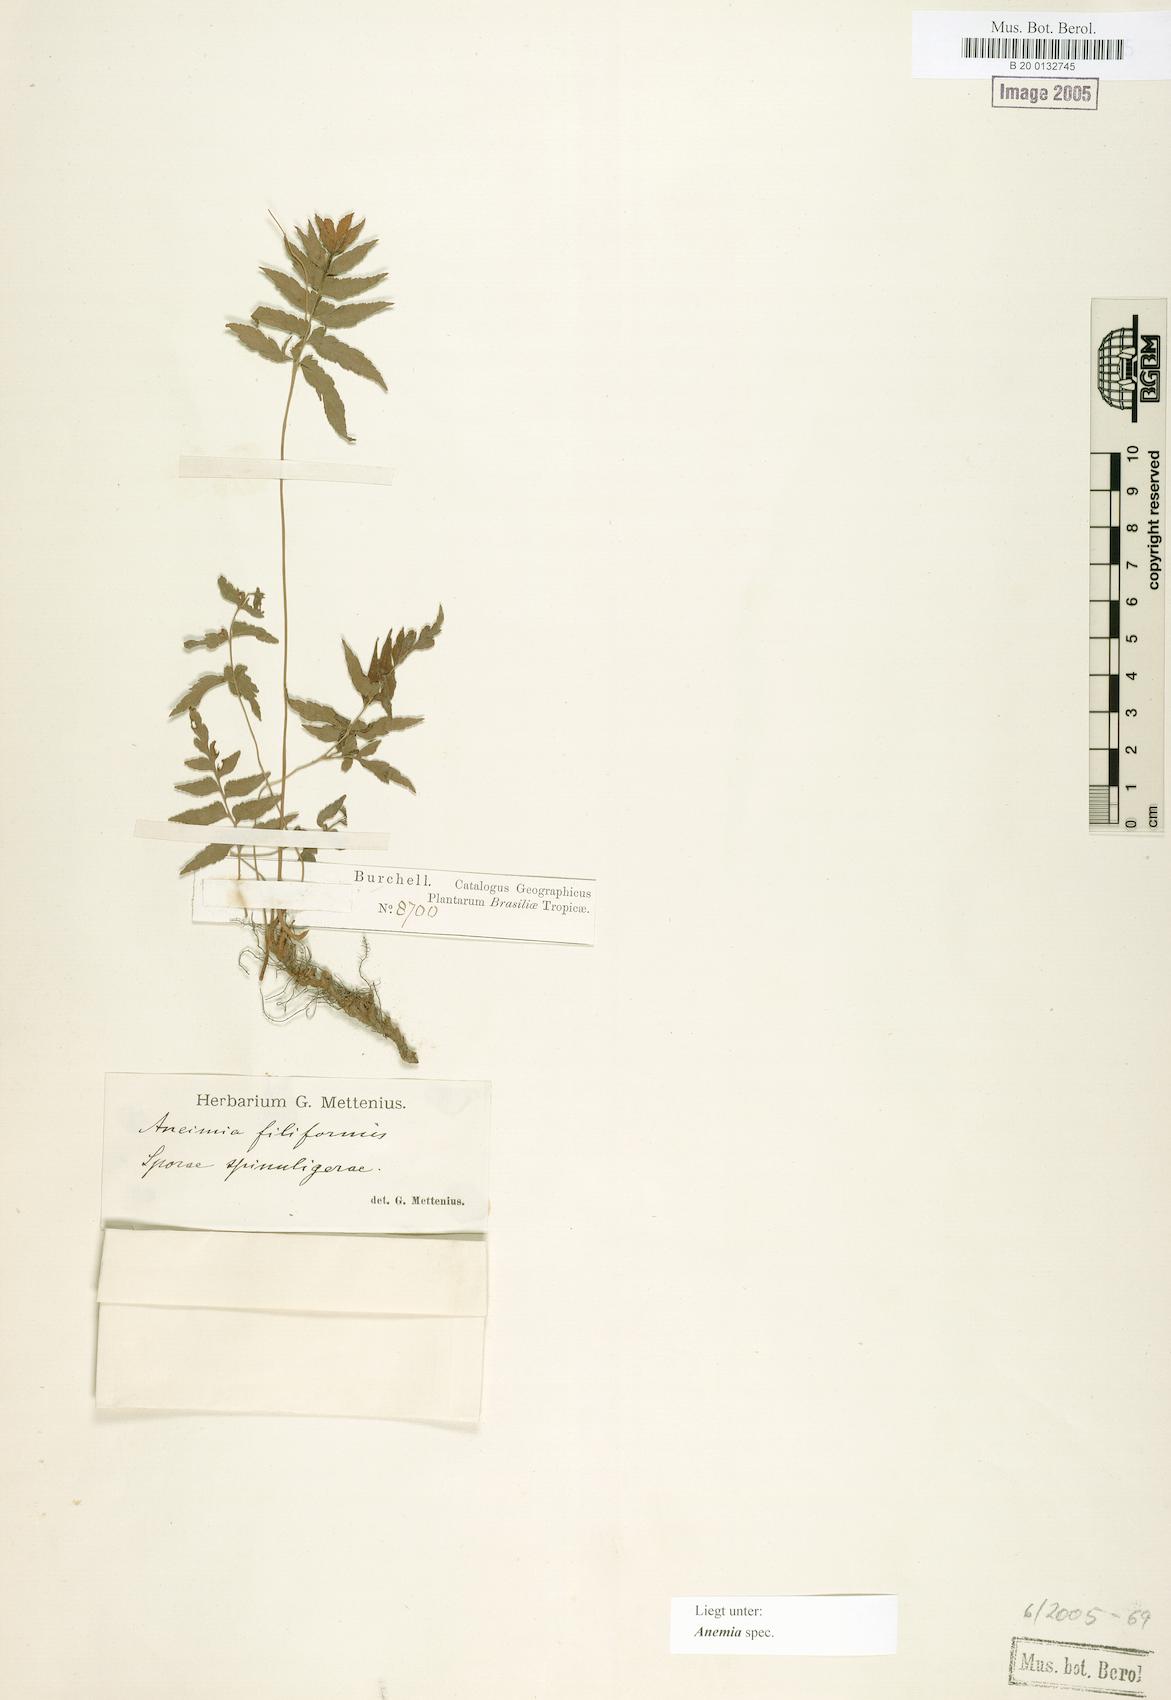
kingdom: Plantae
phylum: Tracheophyta
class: Polypodiopsida
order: Schizaeales
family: Anemiaceae
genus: Anemia
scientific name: Anemia
